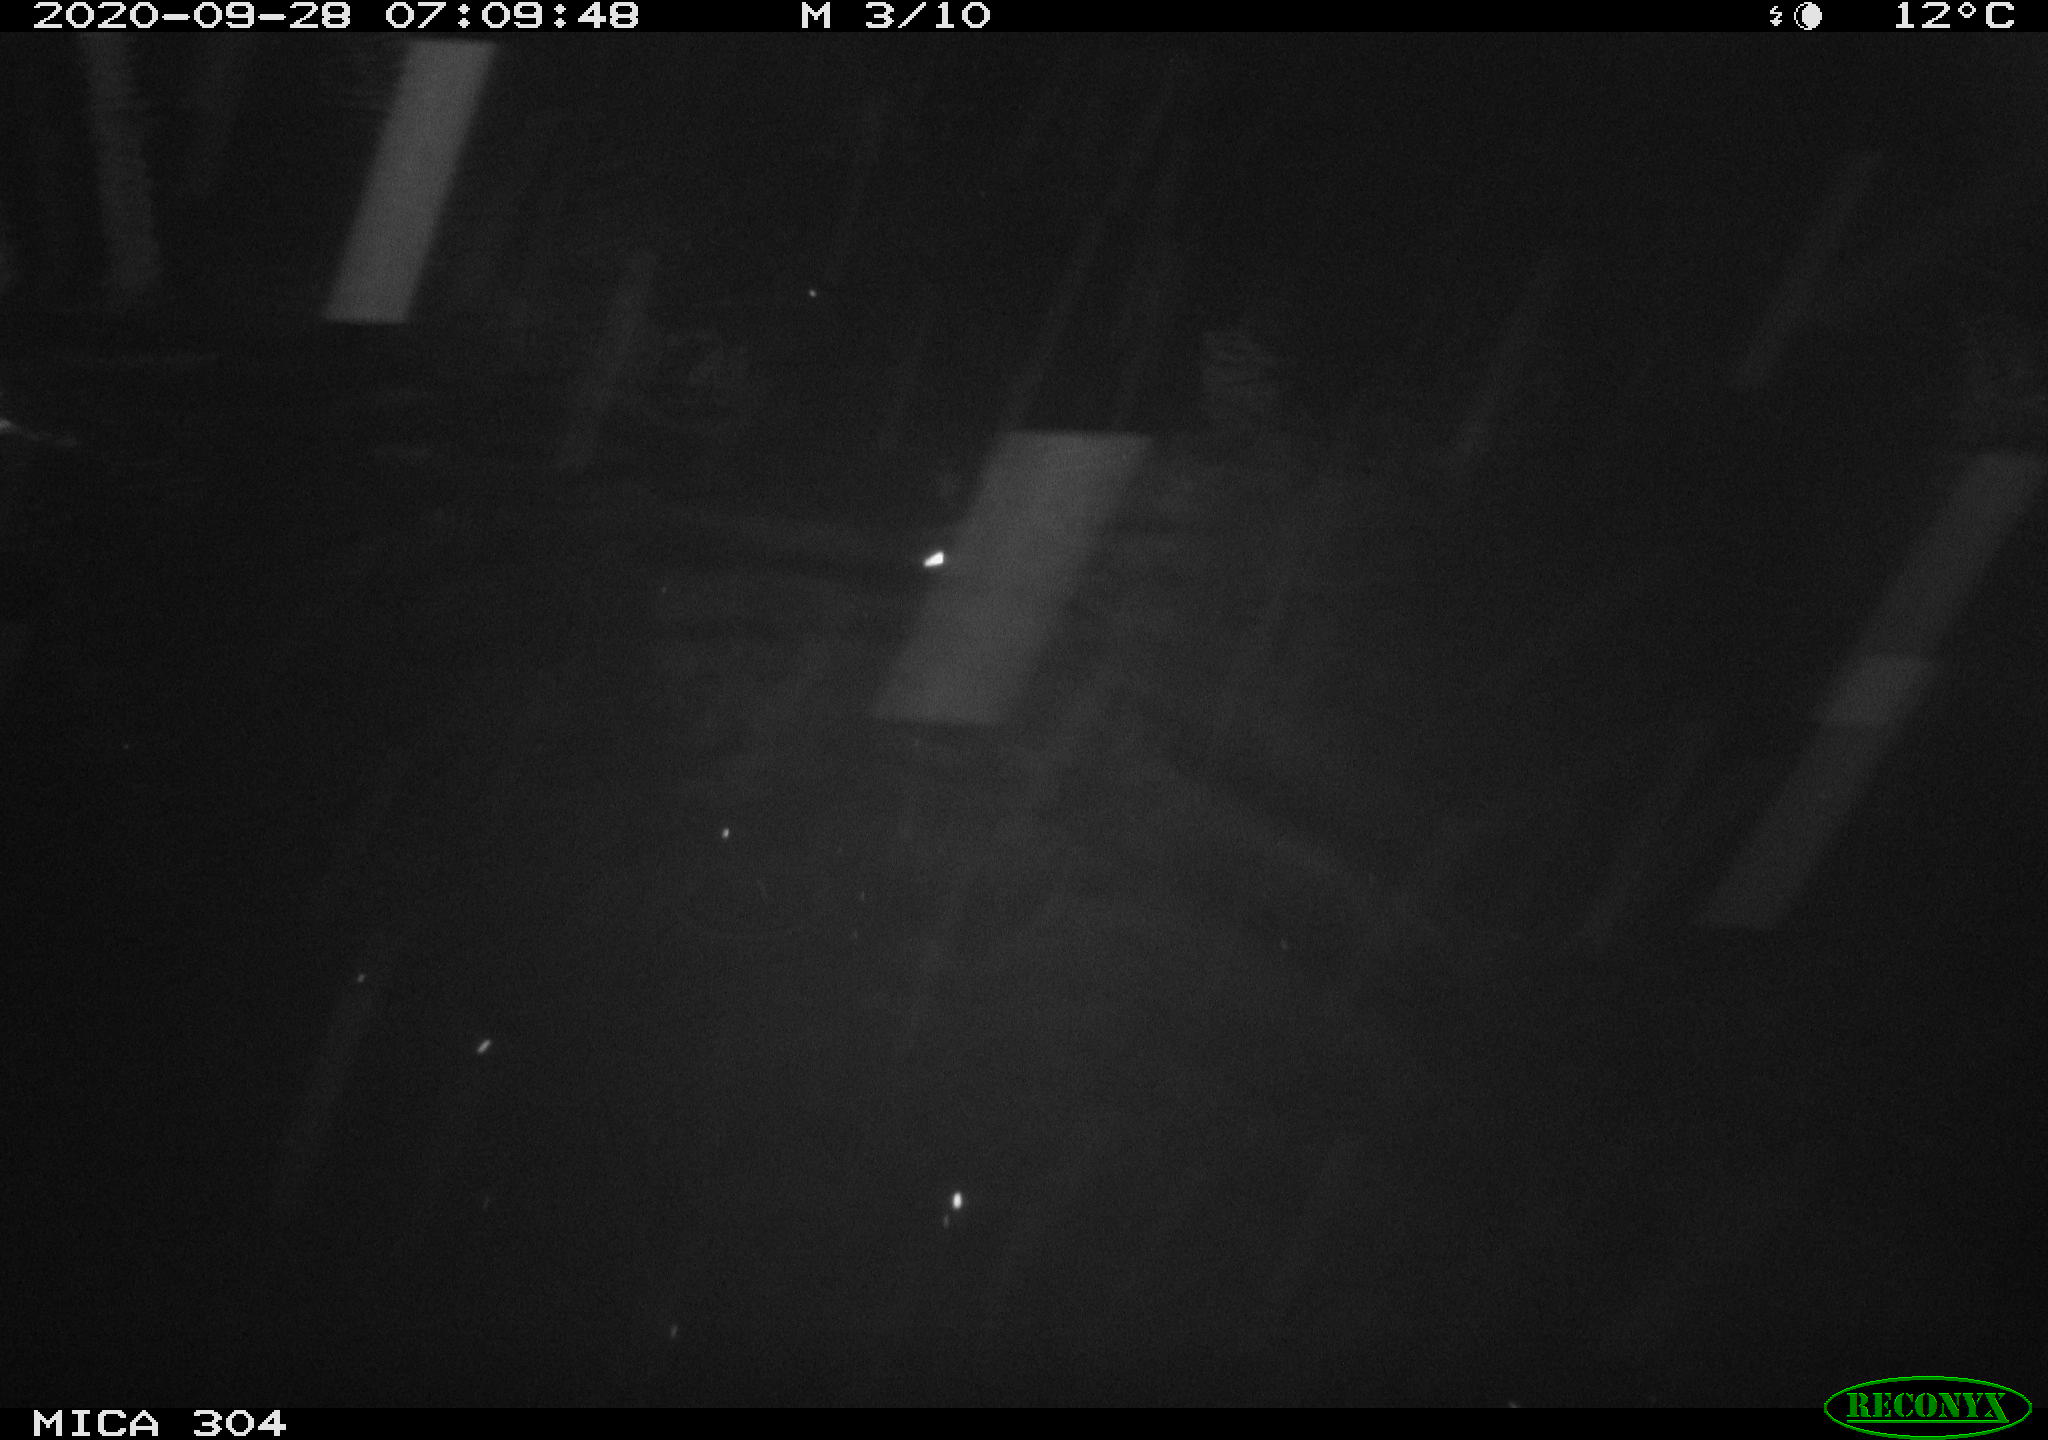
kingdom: Animalia
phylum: Chordata
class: Mammalia
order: Rodentia
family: Muridae
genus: Rattus
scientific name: Rattus norvegicus
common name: Brown rat
